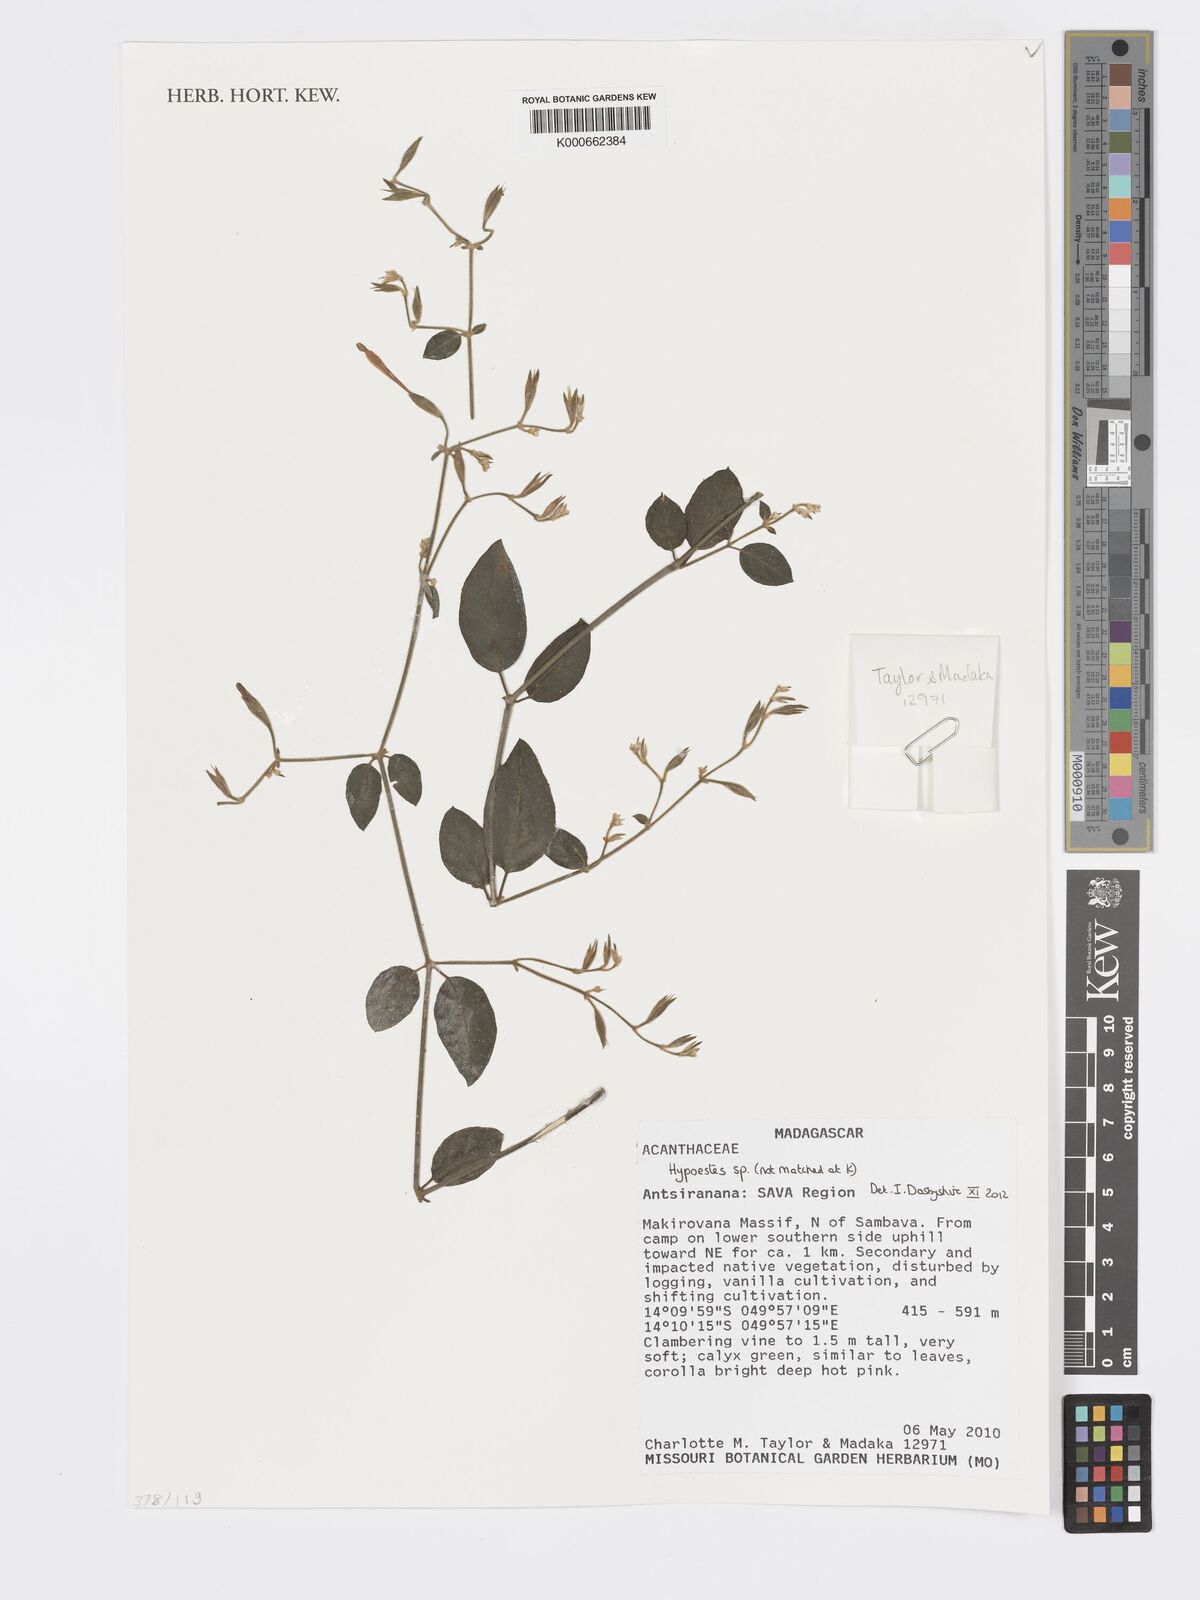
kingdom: Plantae
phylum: Tracheophyta
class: Magnoliopsida
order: Lamiales
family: Acanthaceae
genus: Hypoestes
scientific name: Hypoestes
